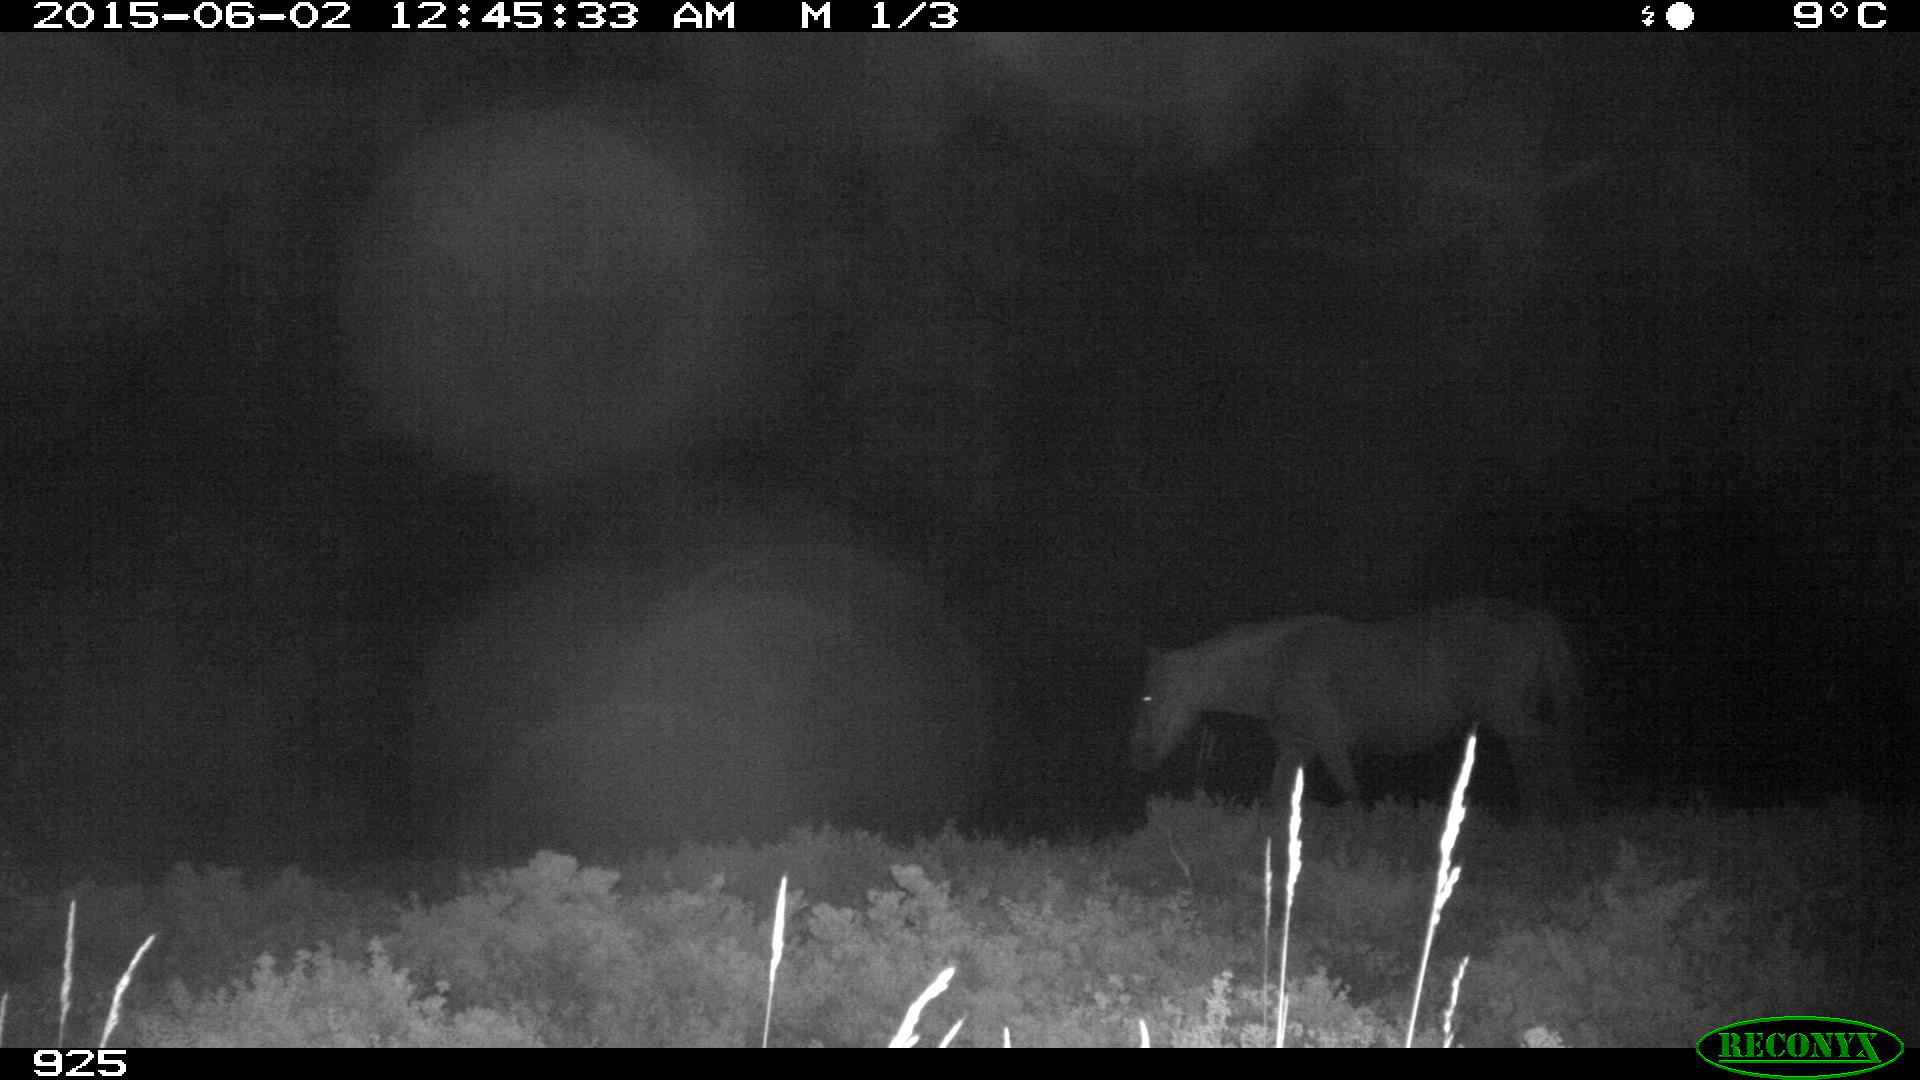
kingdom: Animalia
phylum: Chordata
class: Mammalia
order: Perissodactyla
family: Equidae
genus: Equus
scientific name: Equus caballus
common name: Horse
